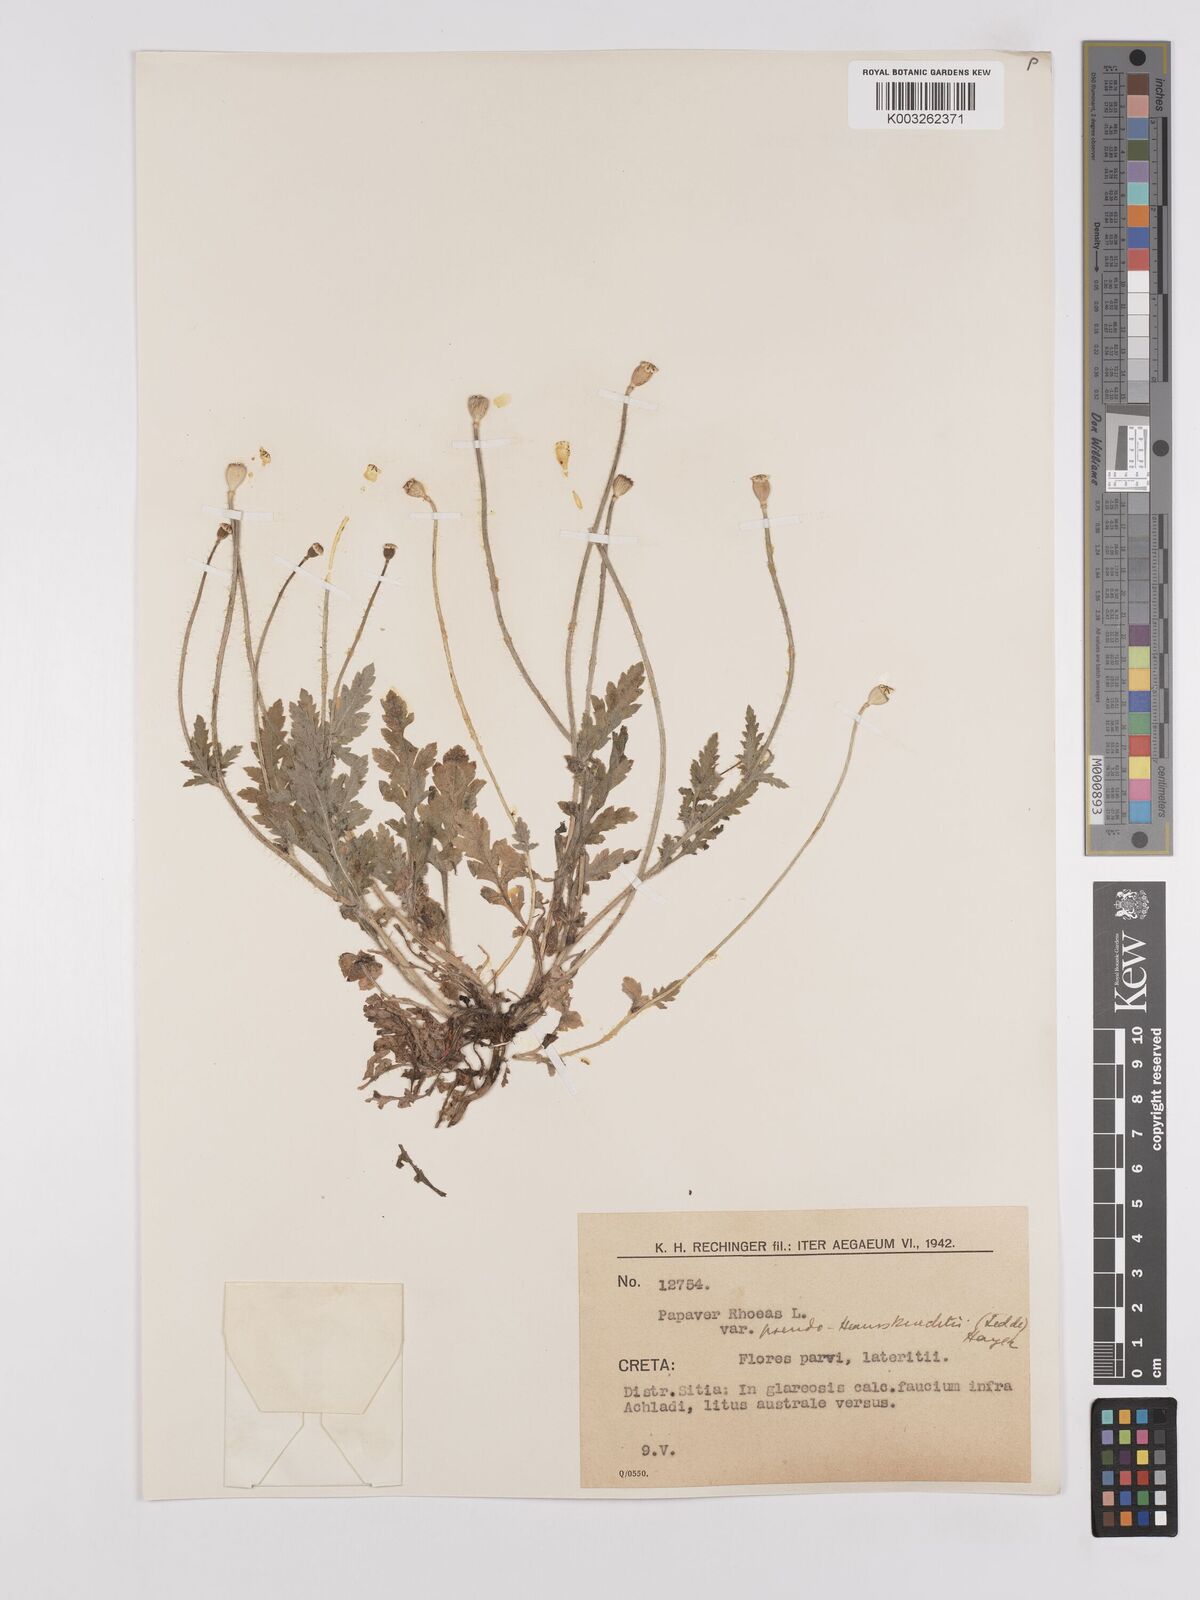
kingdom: Plantae
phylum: Tracheophyta
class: Magnoliopsida
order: Ranunculales
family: Papaveraceae
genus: Papaver
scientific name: Papaver rhoeas
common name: Corn poppy
